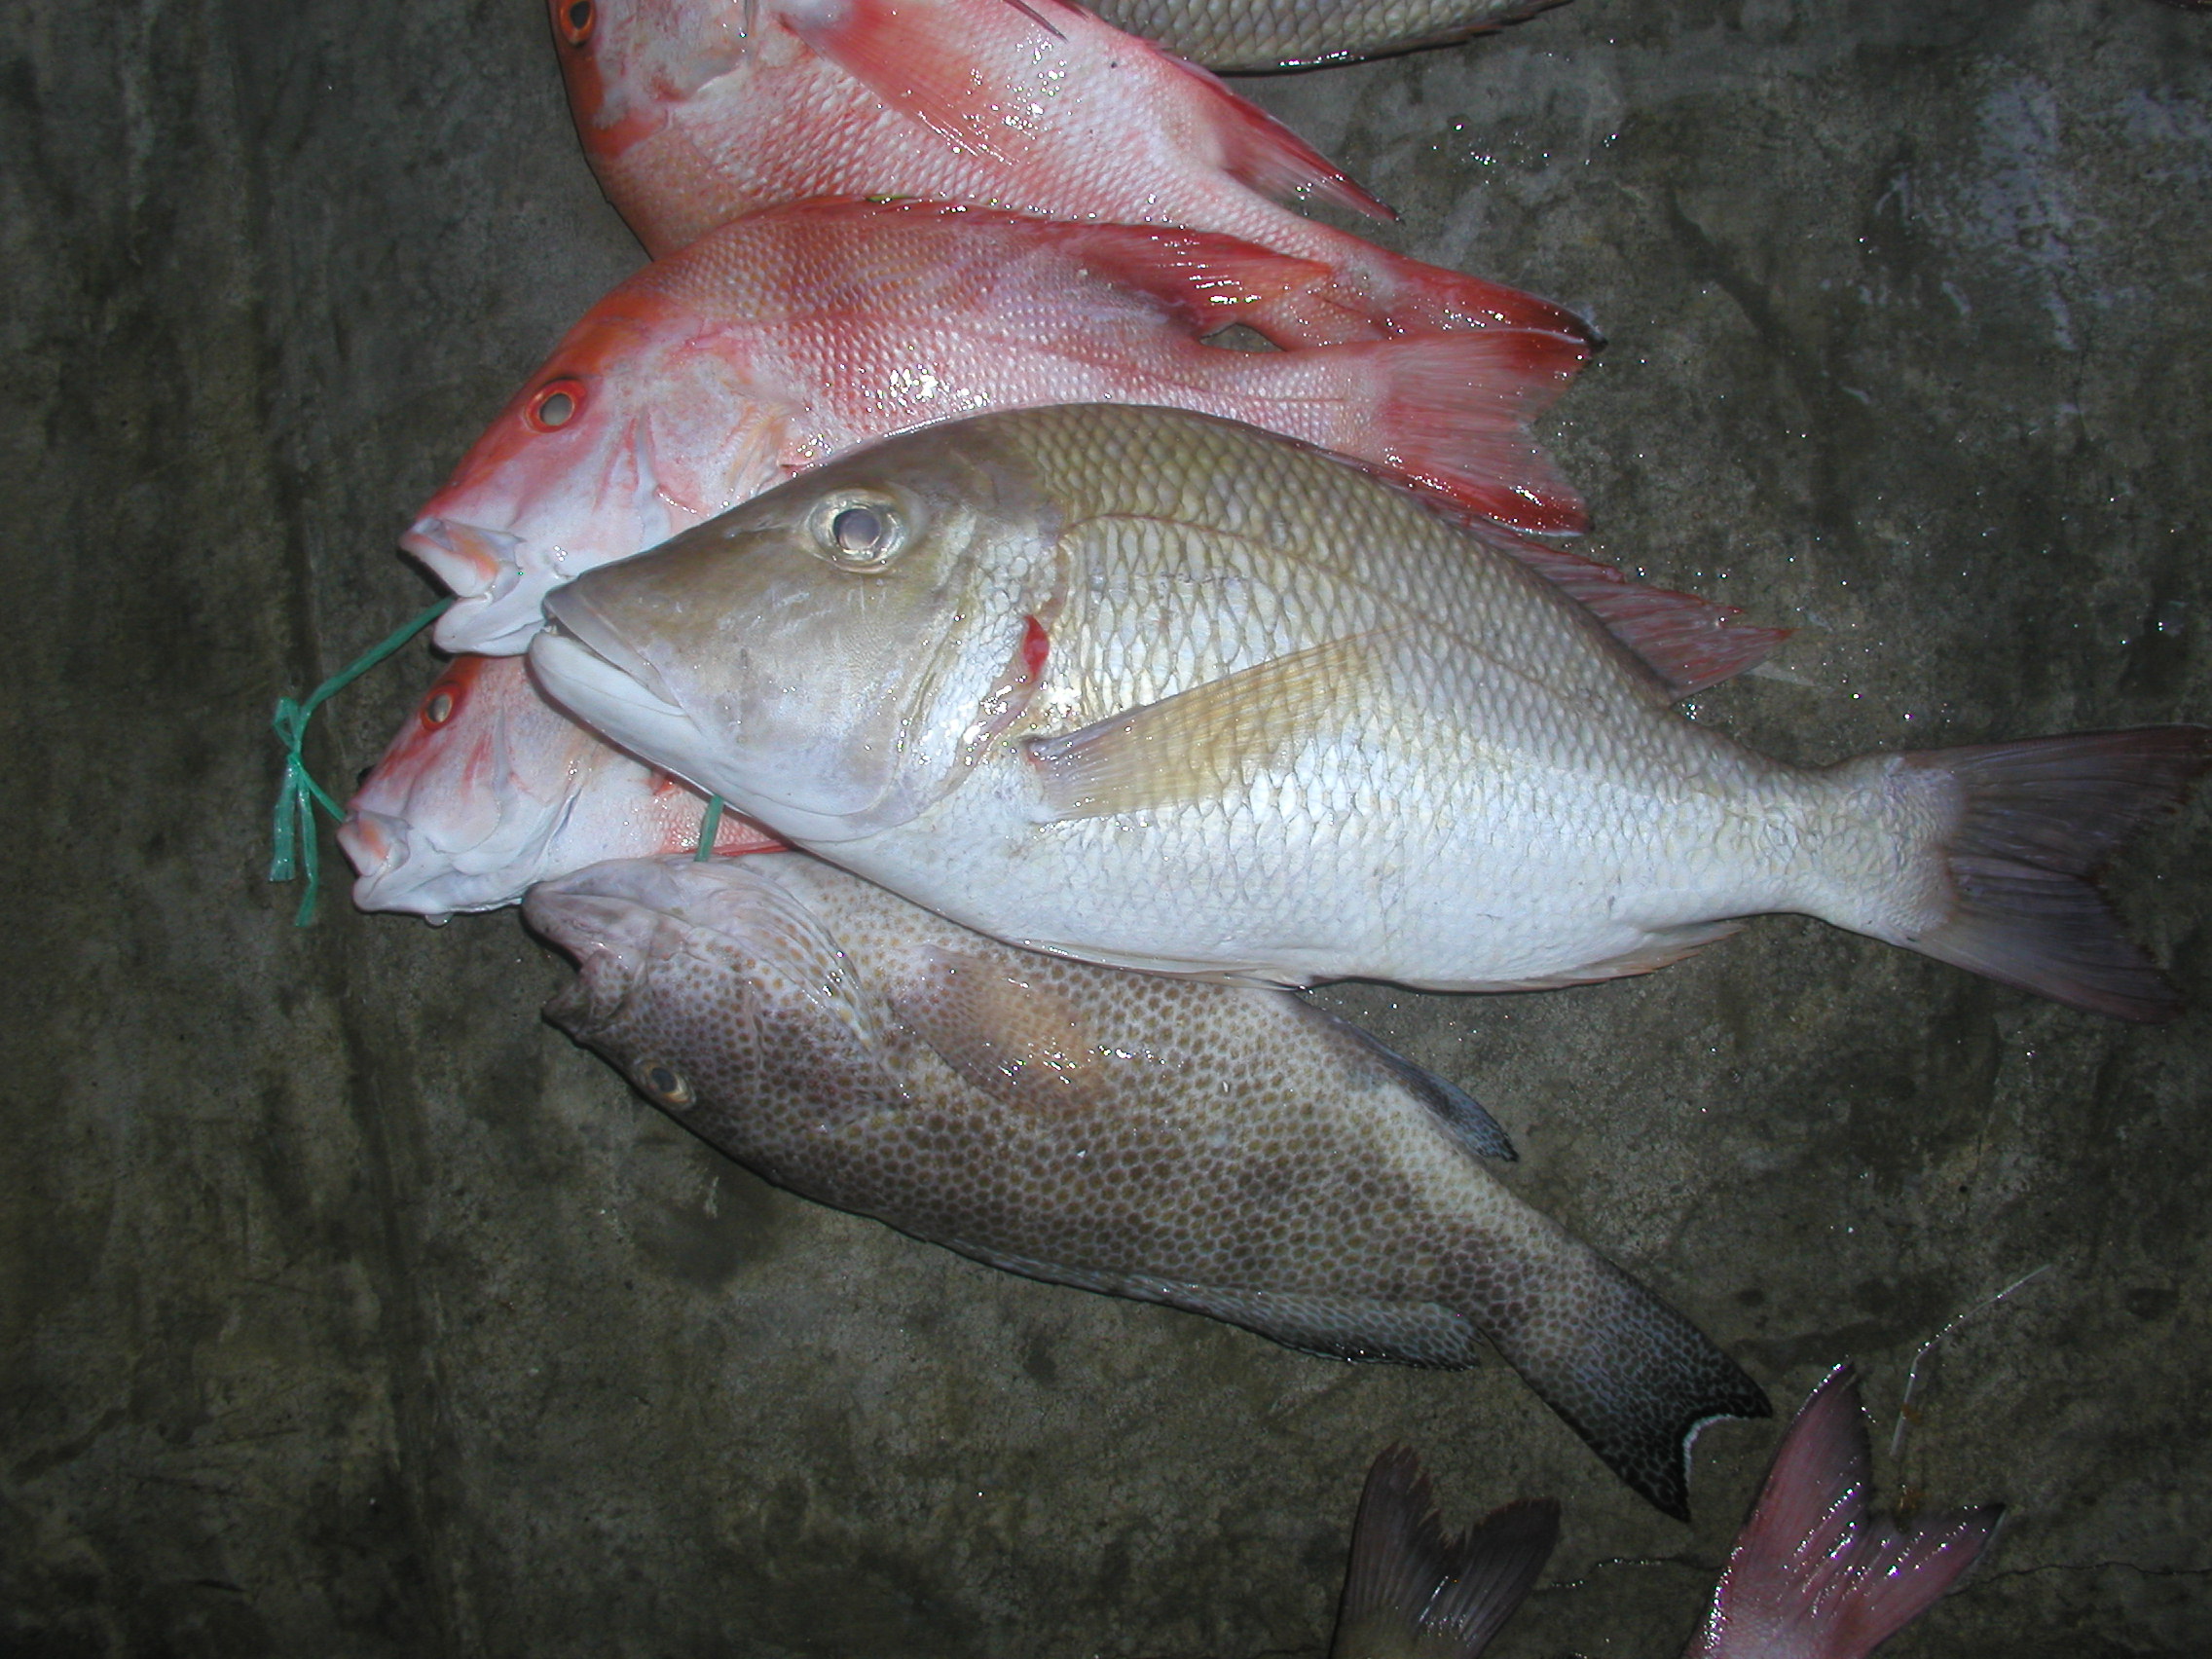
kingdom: Animalia
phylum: Chordata
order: Perciformes
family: Lethrinidae
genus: Lethrinus
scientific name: Lethrinus lentjan
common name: Redspot emperor
